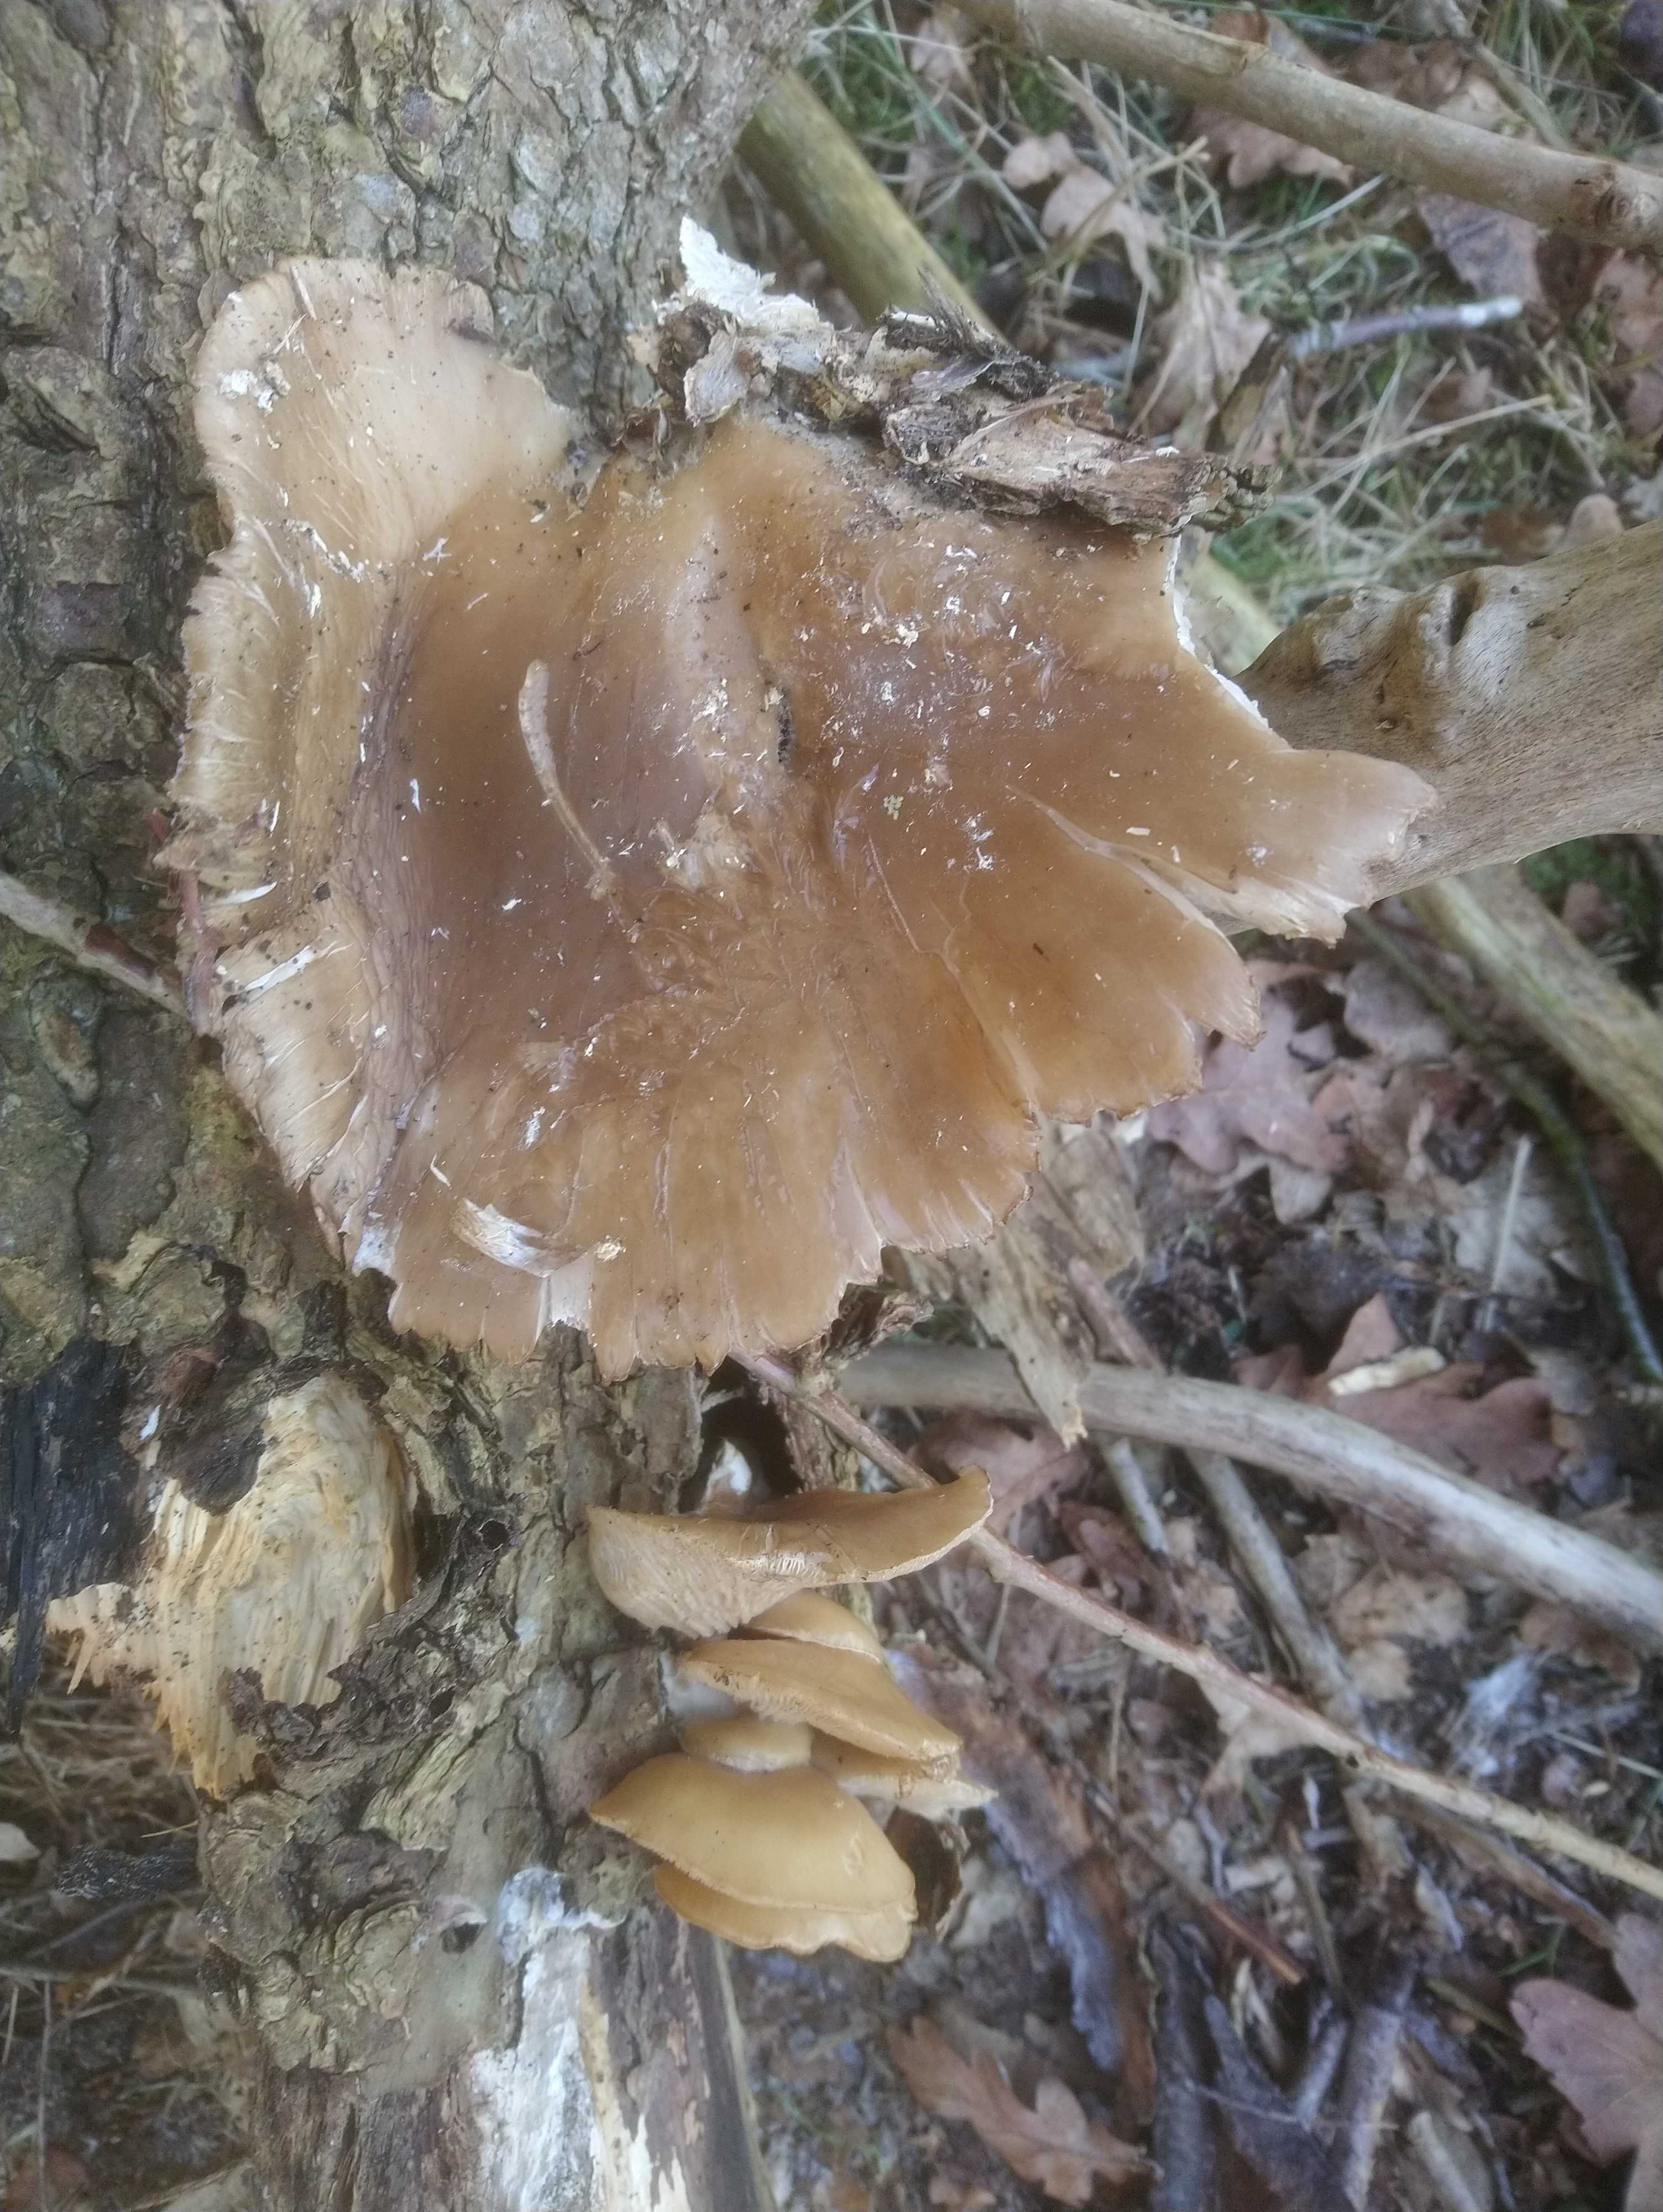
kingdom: Fungi
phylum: Basidiomycota
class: Agaricomycetes
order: Agaricales
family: Pleurotaceae
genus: Pleurotus
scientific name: Pleurotus ostreatus
